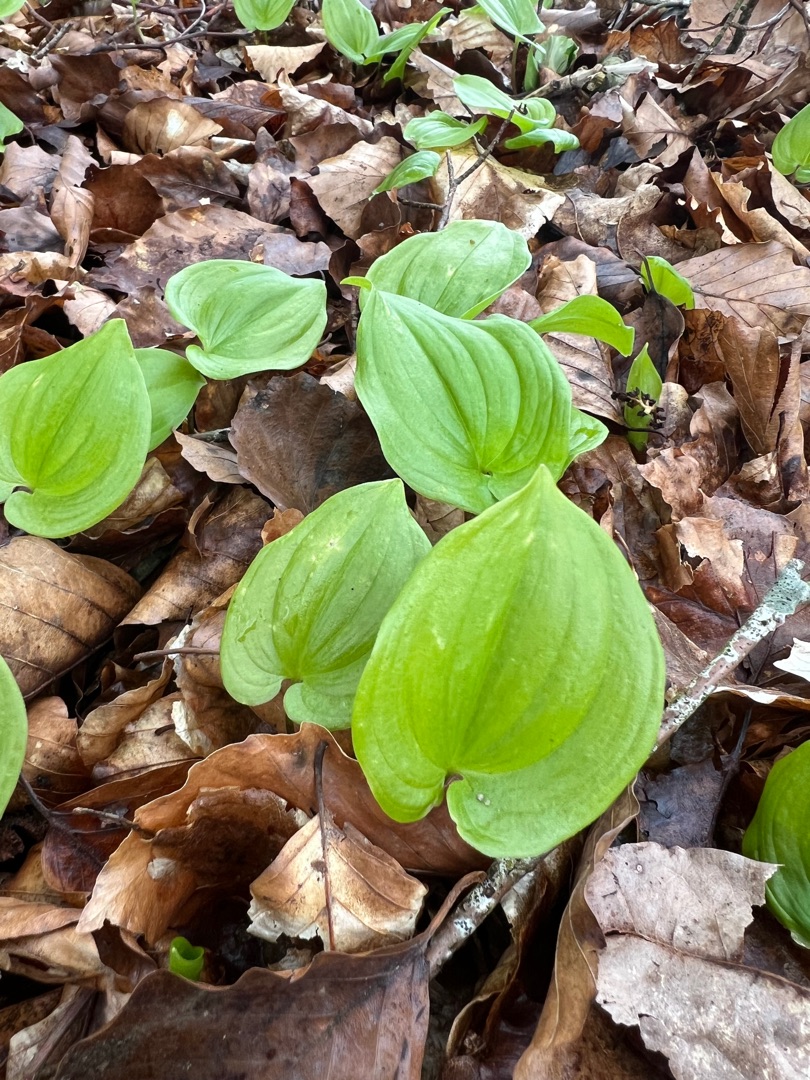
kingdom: Plantae
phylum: Tracheophyta
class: Liliopsida
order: Asparagales
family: Asparagaceae
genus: Maianthemum
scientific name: Maianthemum bifolium
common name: Majblomst
